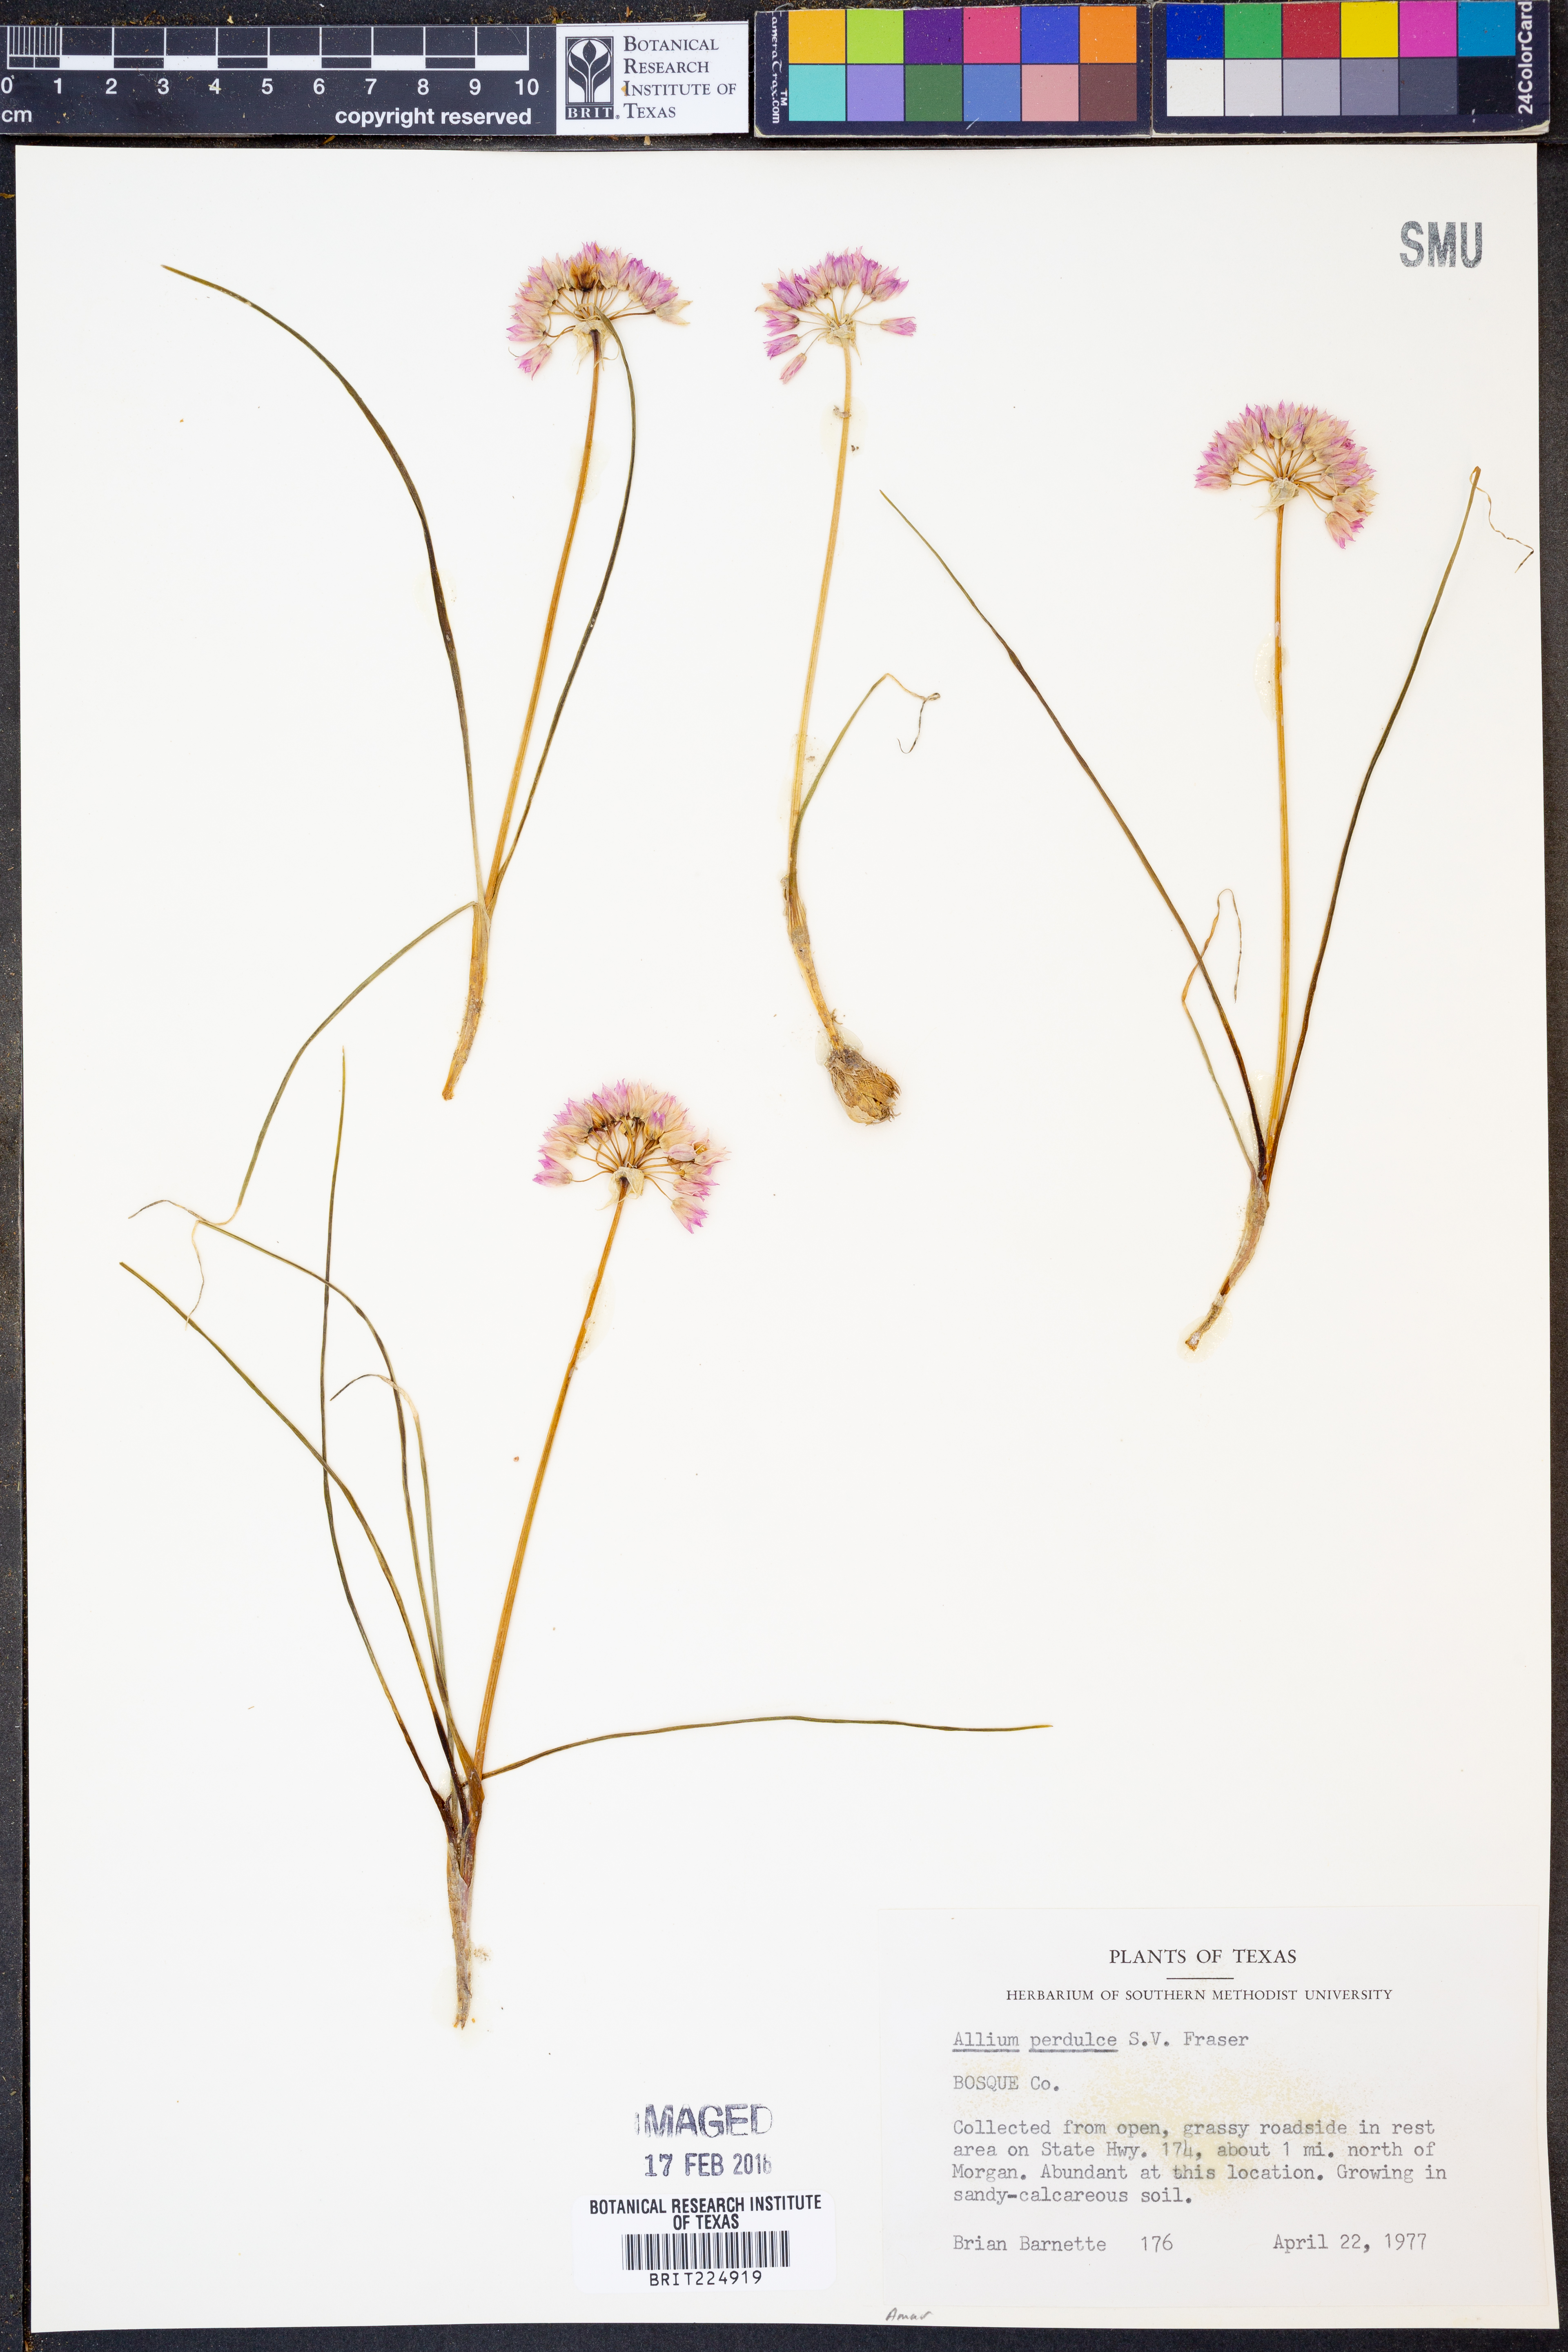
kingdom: Plantae
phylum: Tracheophyta
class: Liliopsida
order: Asparagales
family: Amaryllidaceae
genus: Allium
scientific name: Allium perdulce
